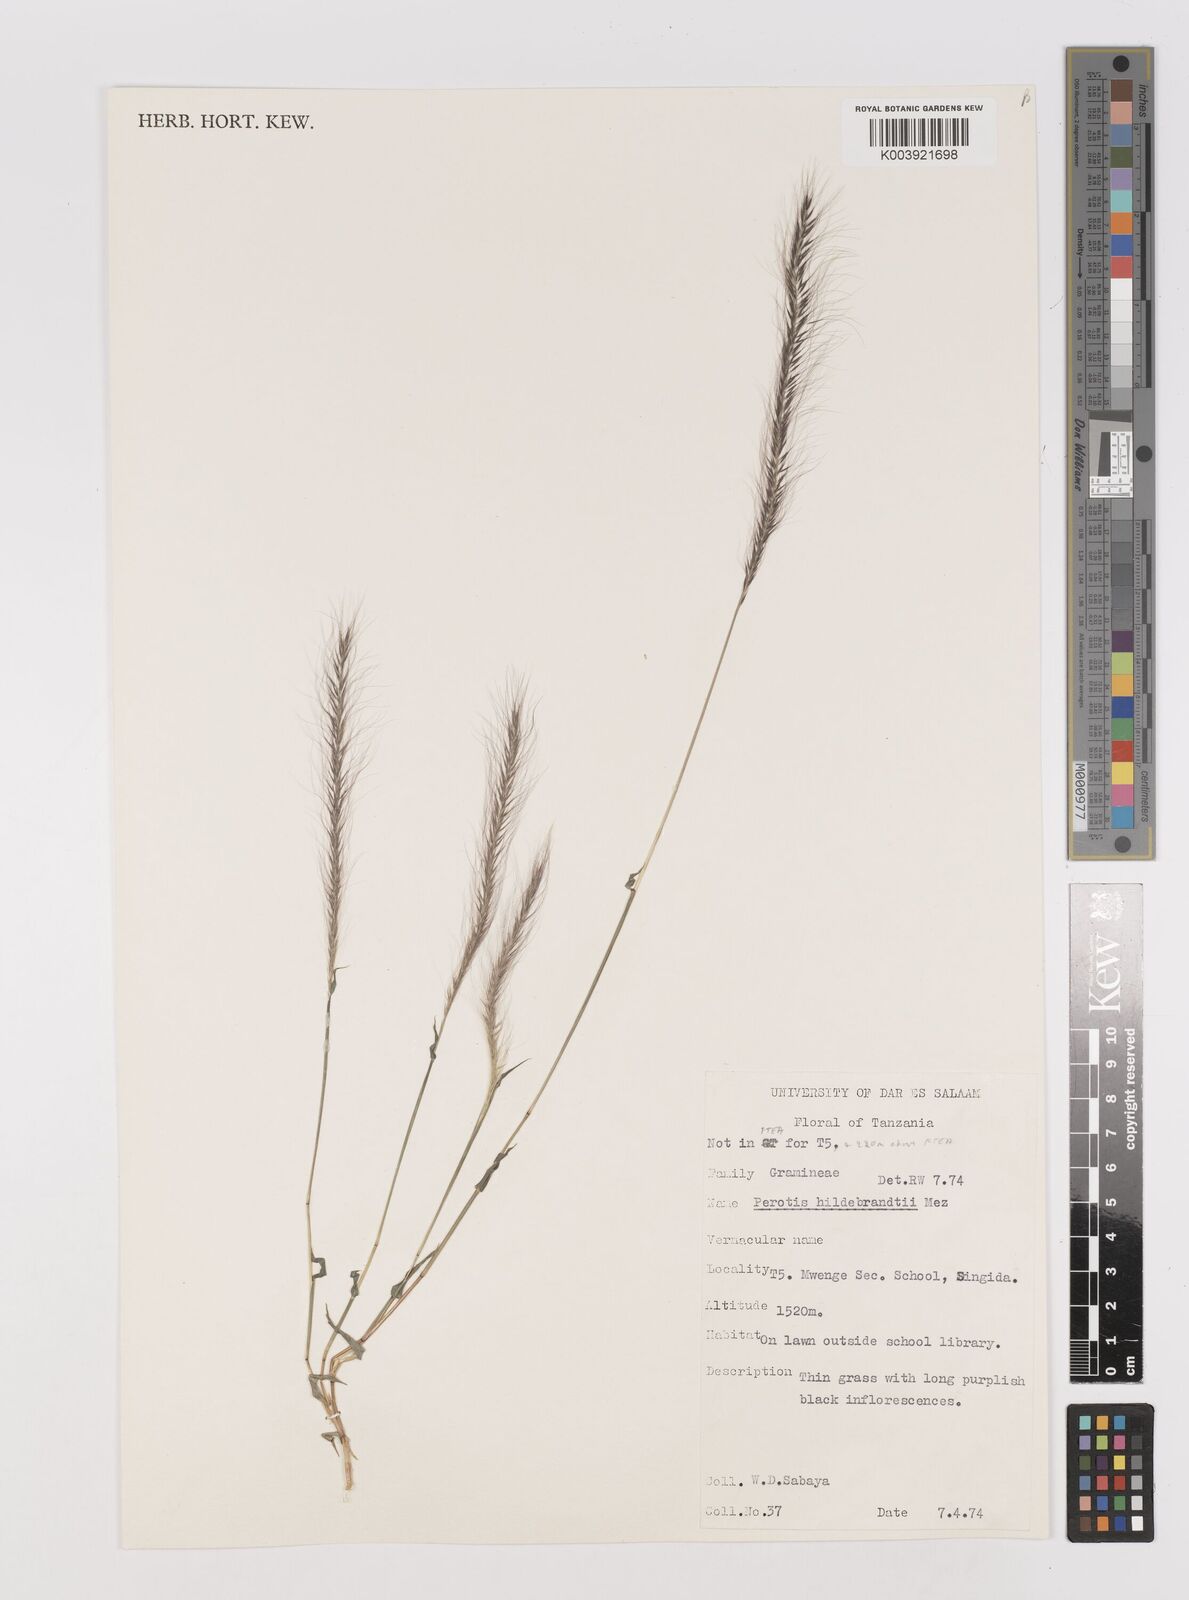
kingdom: Plantae
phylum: Tracheophyta
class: Liliopsida
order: Poales
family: Poaceae
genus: Perotis
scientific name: Perotis hildebrandtii
